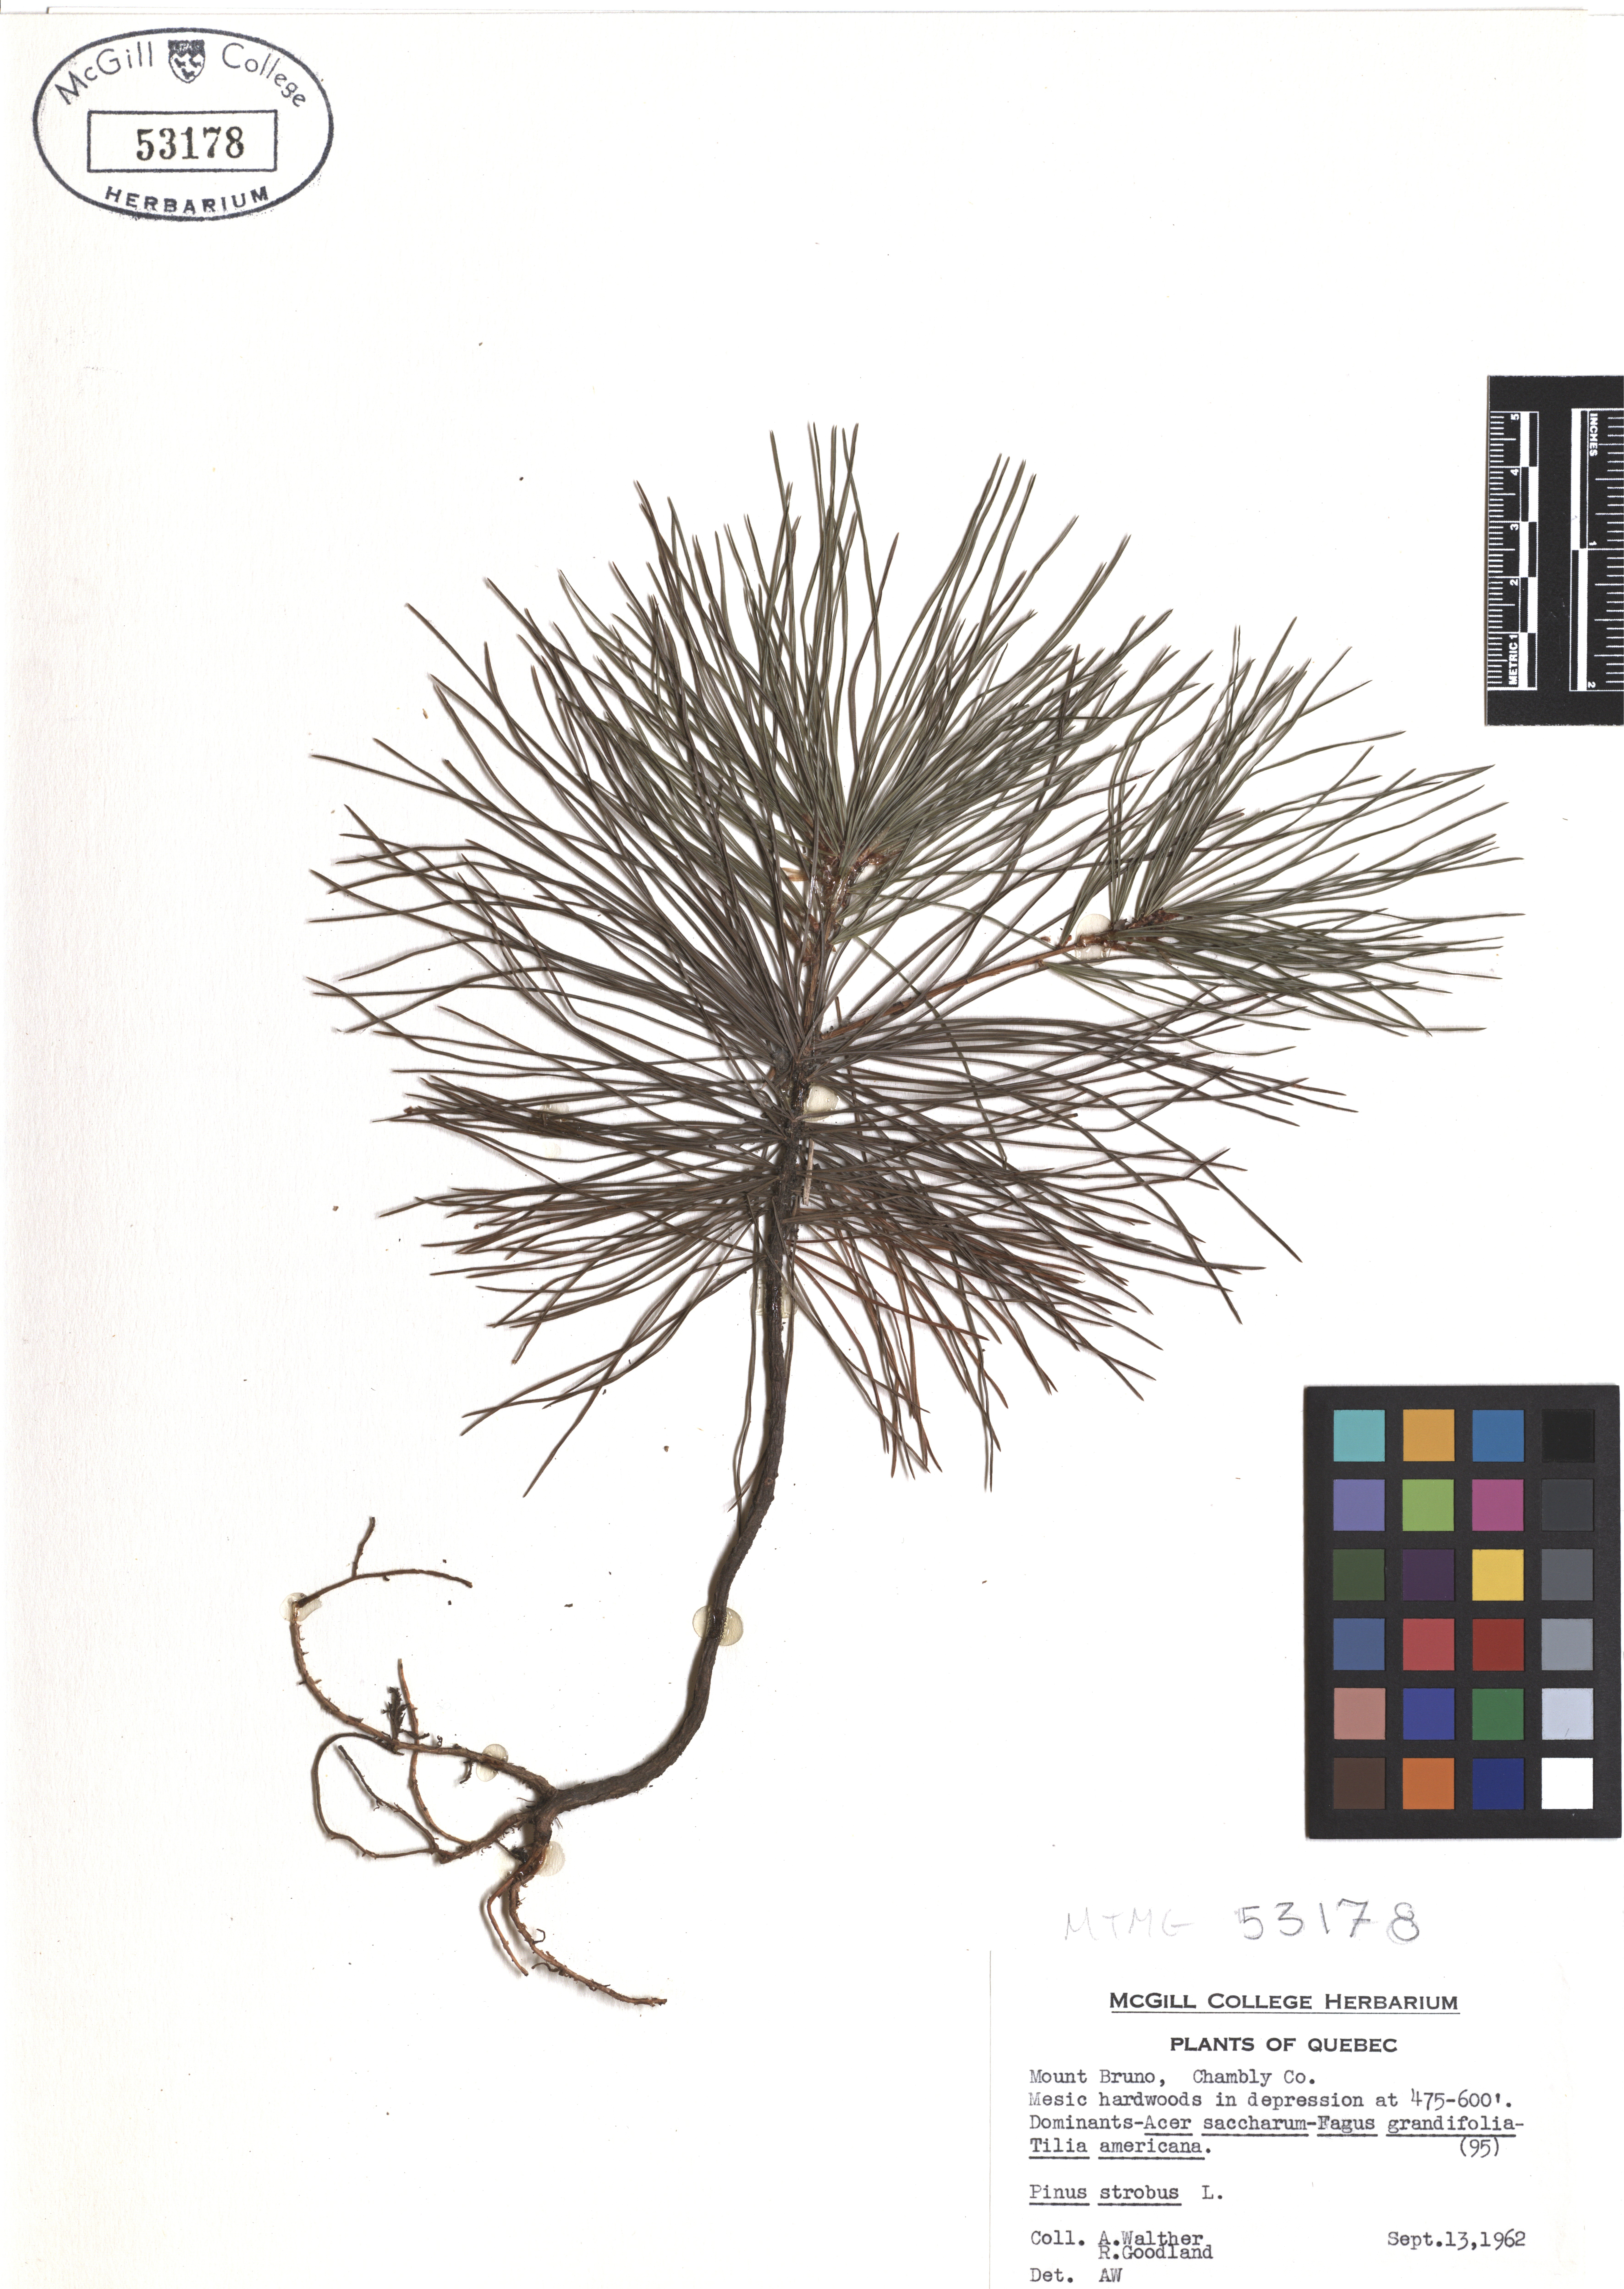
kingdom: Plantae
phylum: Tracheophyta
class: Pinopsida
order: Pinales
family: Pinaceae
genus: Pinus
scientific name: Pinus strobus
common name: Weymouth pine
